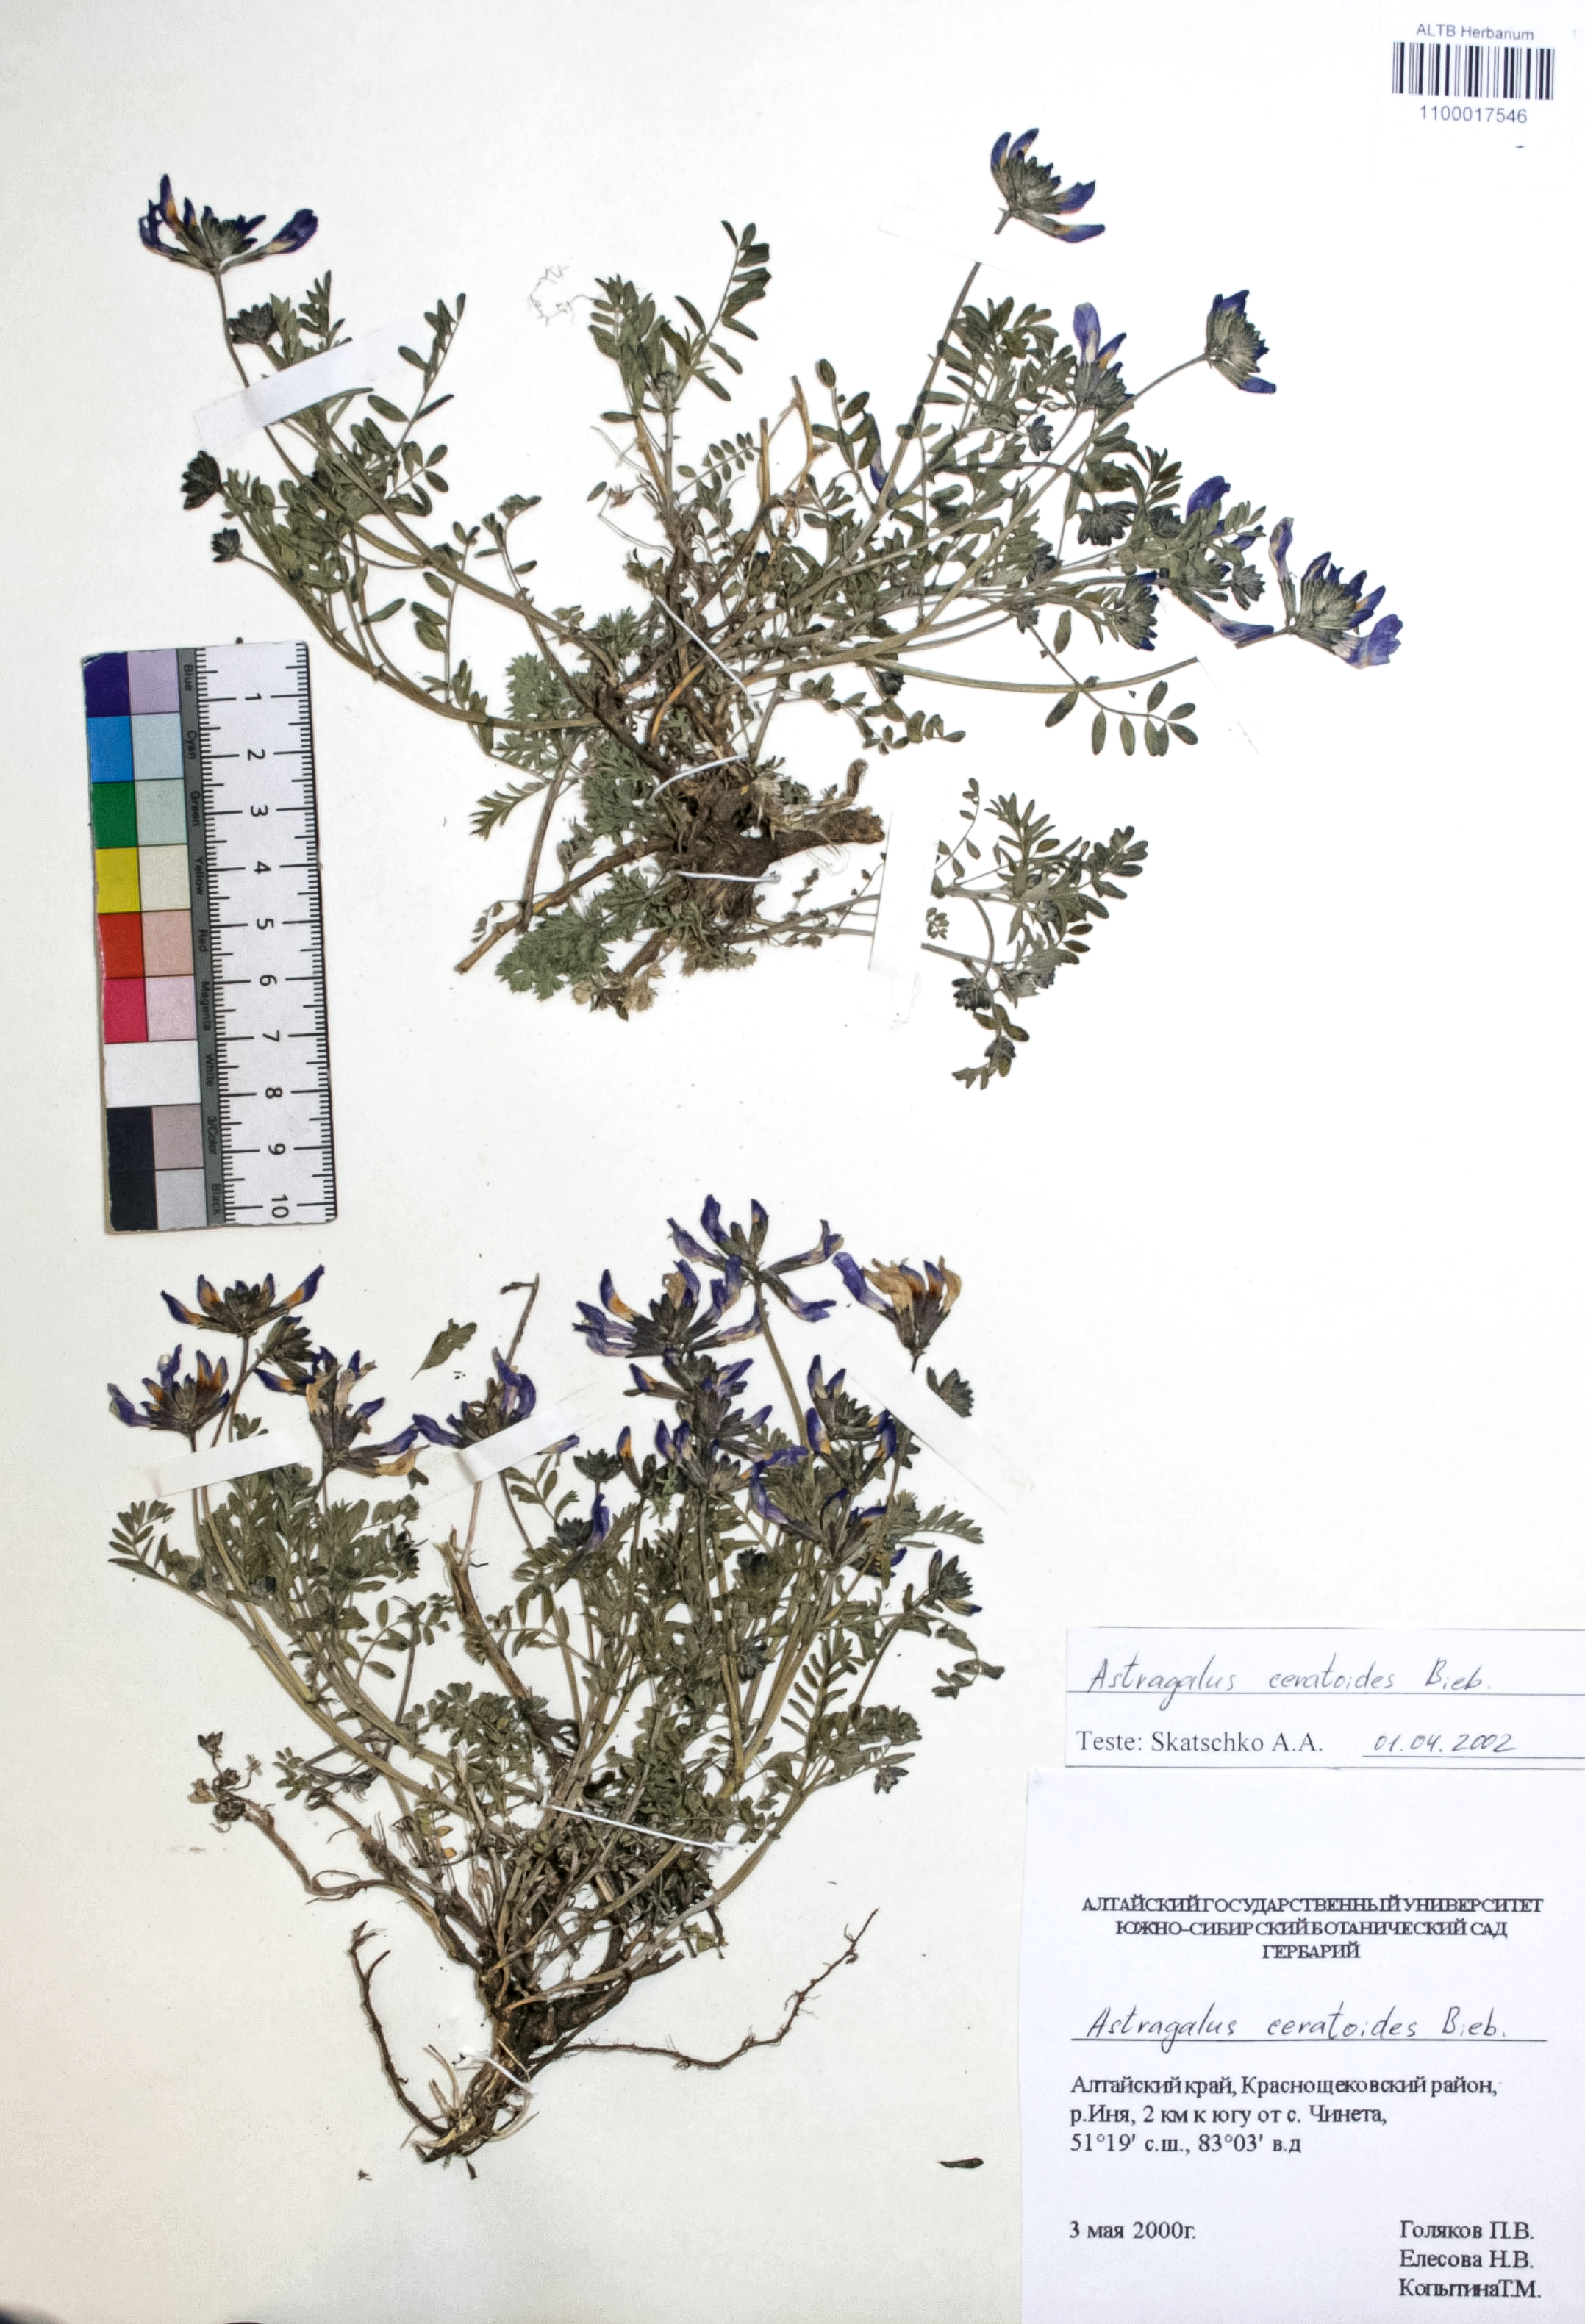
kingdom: Plantae
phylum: Tracheophyta
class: Magnoliopsida
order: Fabales
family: Fabaceae
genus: Astragalus
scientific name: Astragalus ceratoides
